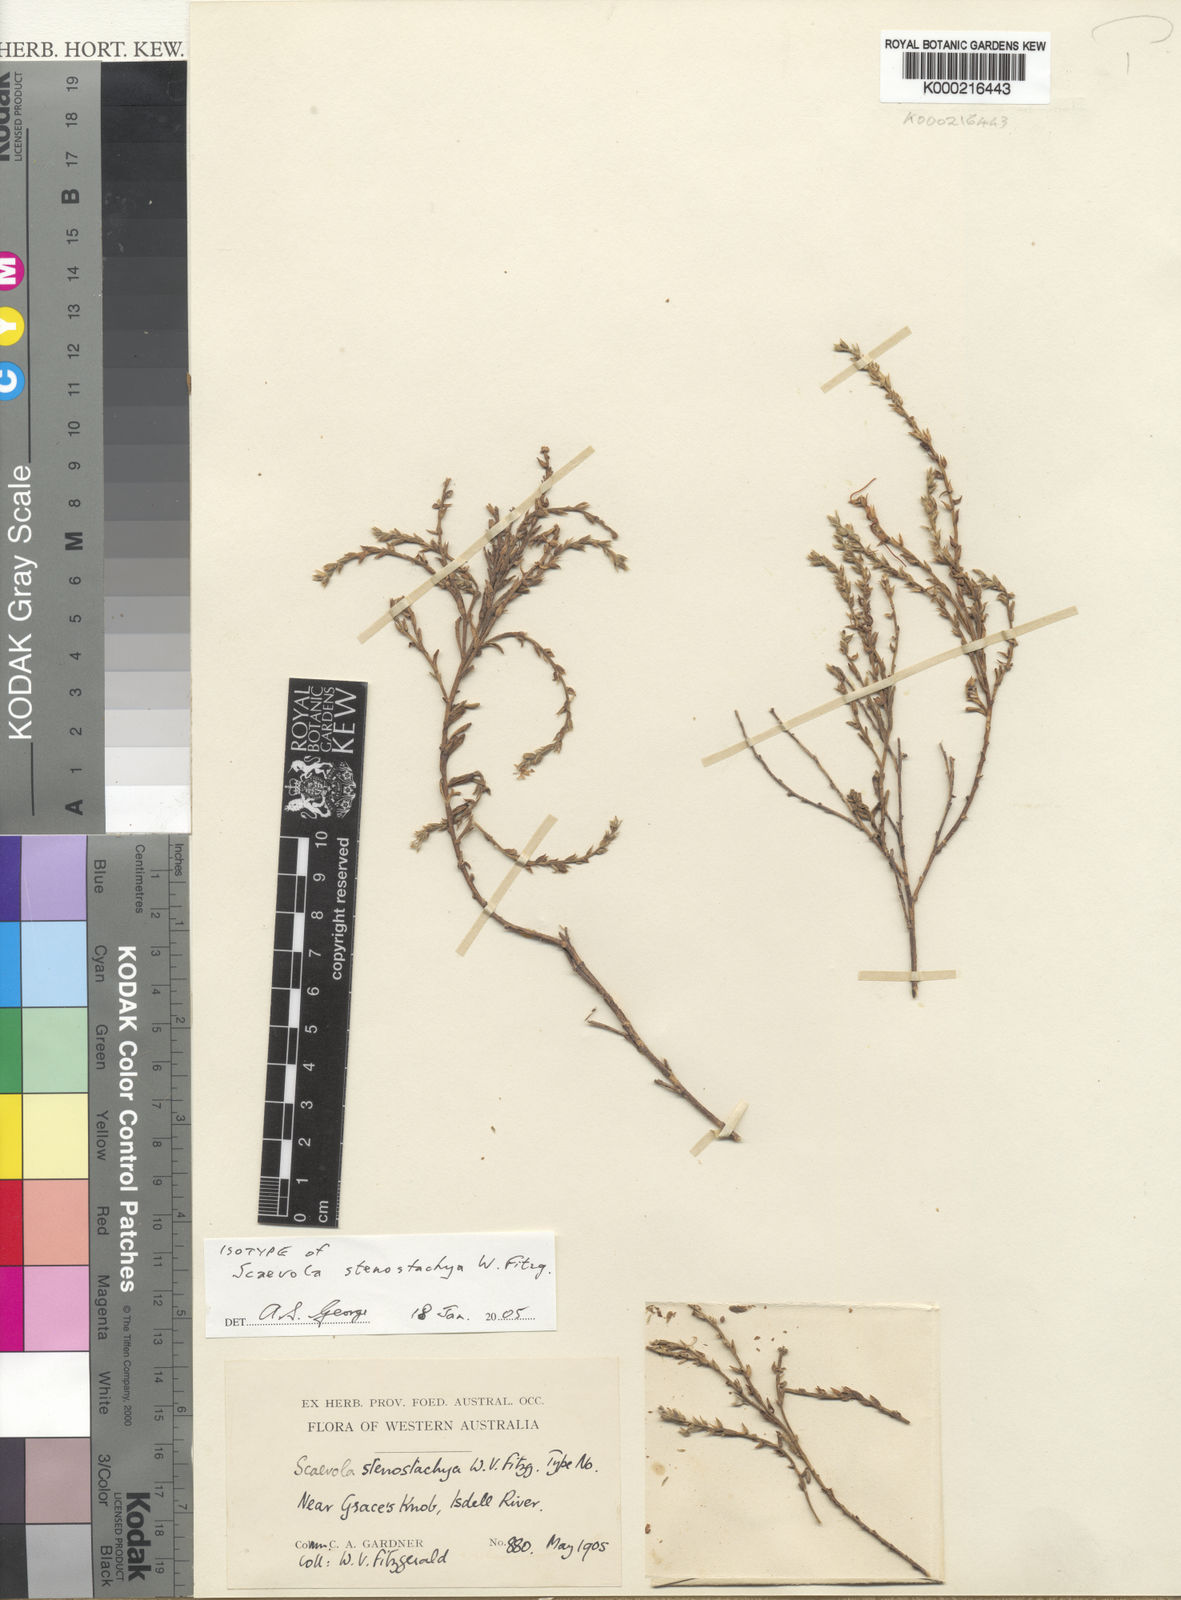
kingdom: Plantae
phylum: Tracheophyta
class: Magnoliopsida
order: Asterales
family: Goodeniaceae
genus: Scaevola
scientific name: Scaevola revoluta
